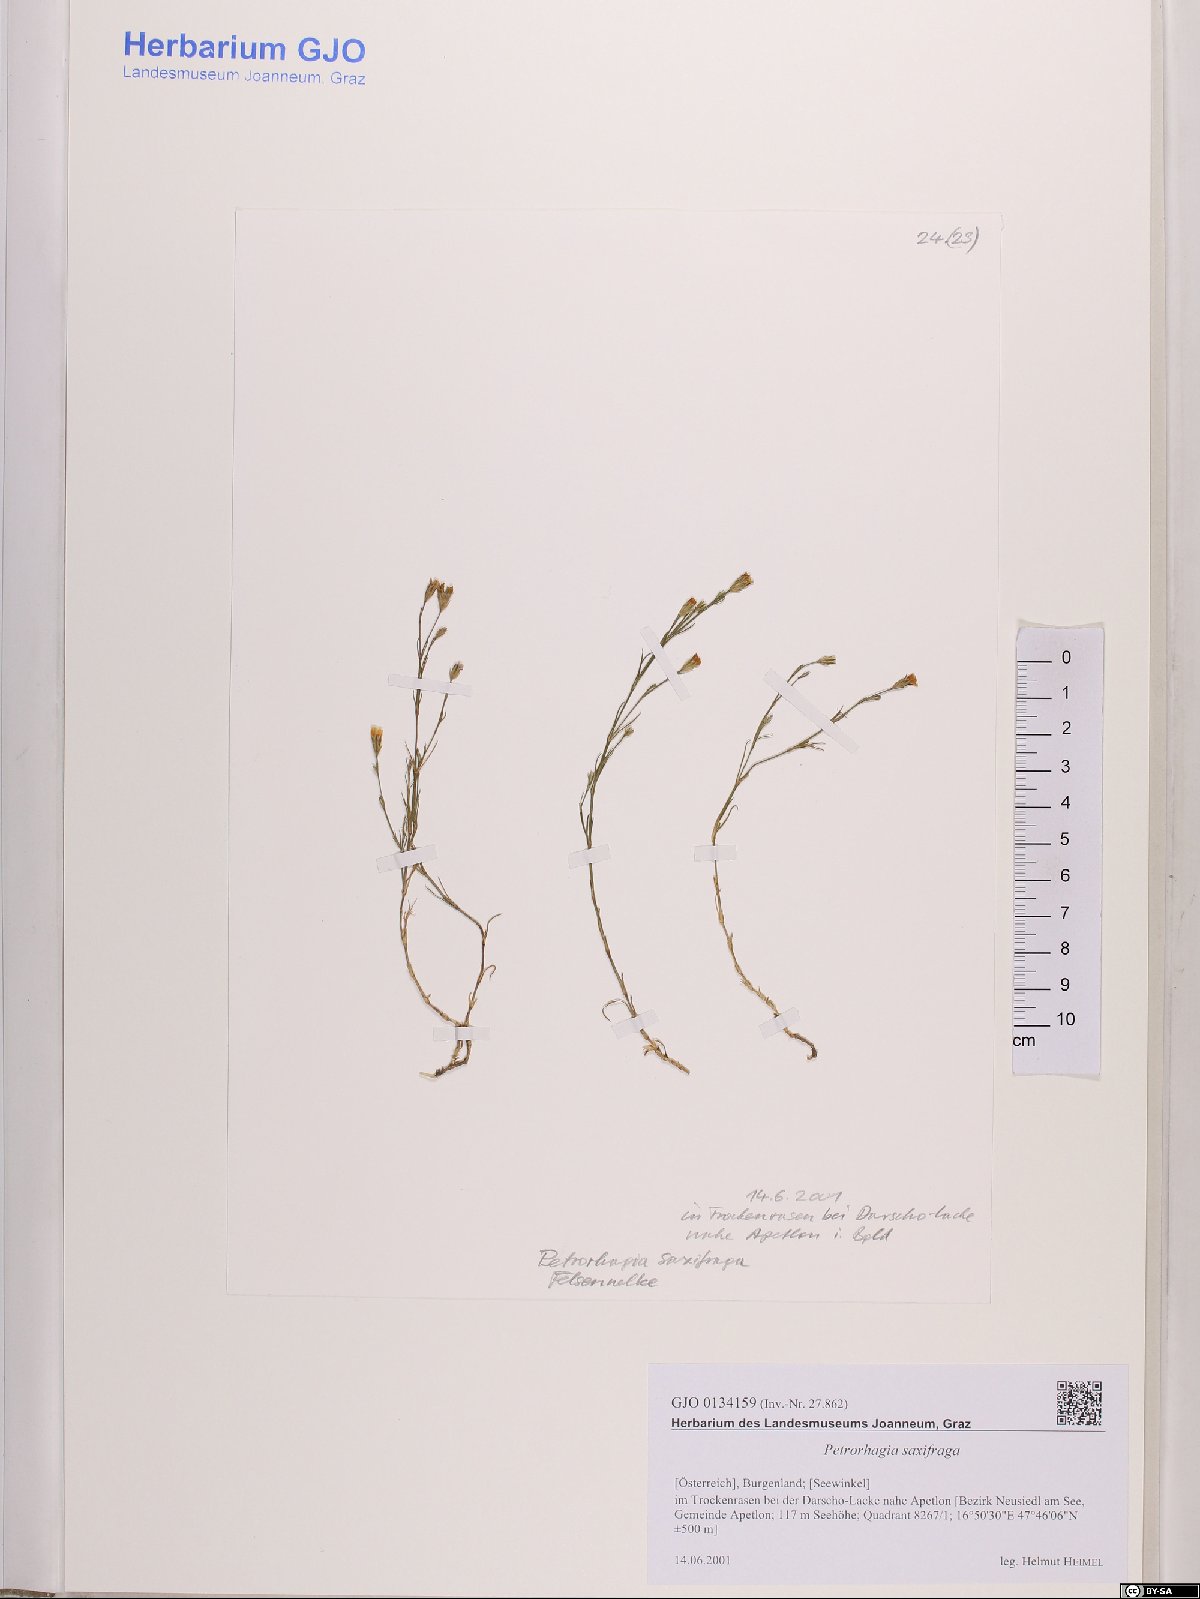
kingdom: Plantae
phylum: Tracheophyta
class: Magnoliopsida
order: Caryophyllales
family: Caryophyllaceae
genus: Petrorhagia
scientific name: Petrorhagia saxifraga
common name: Tunicflower
